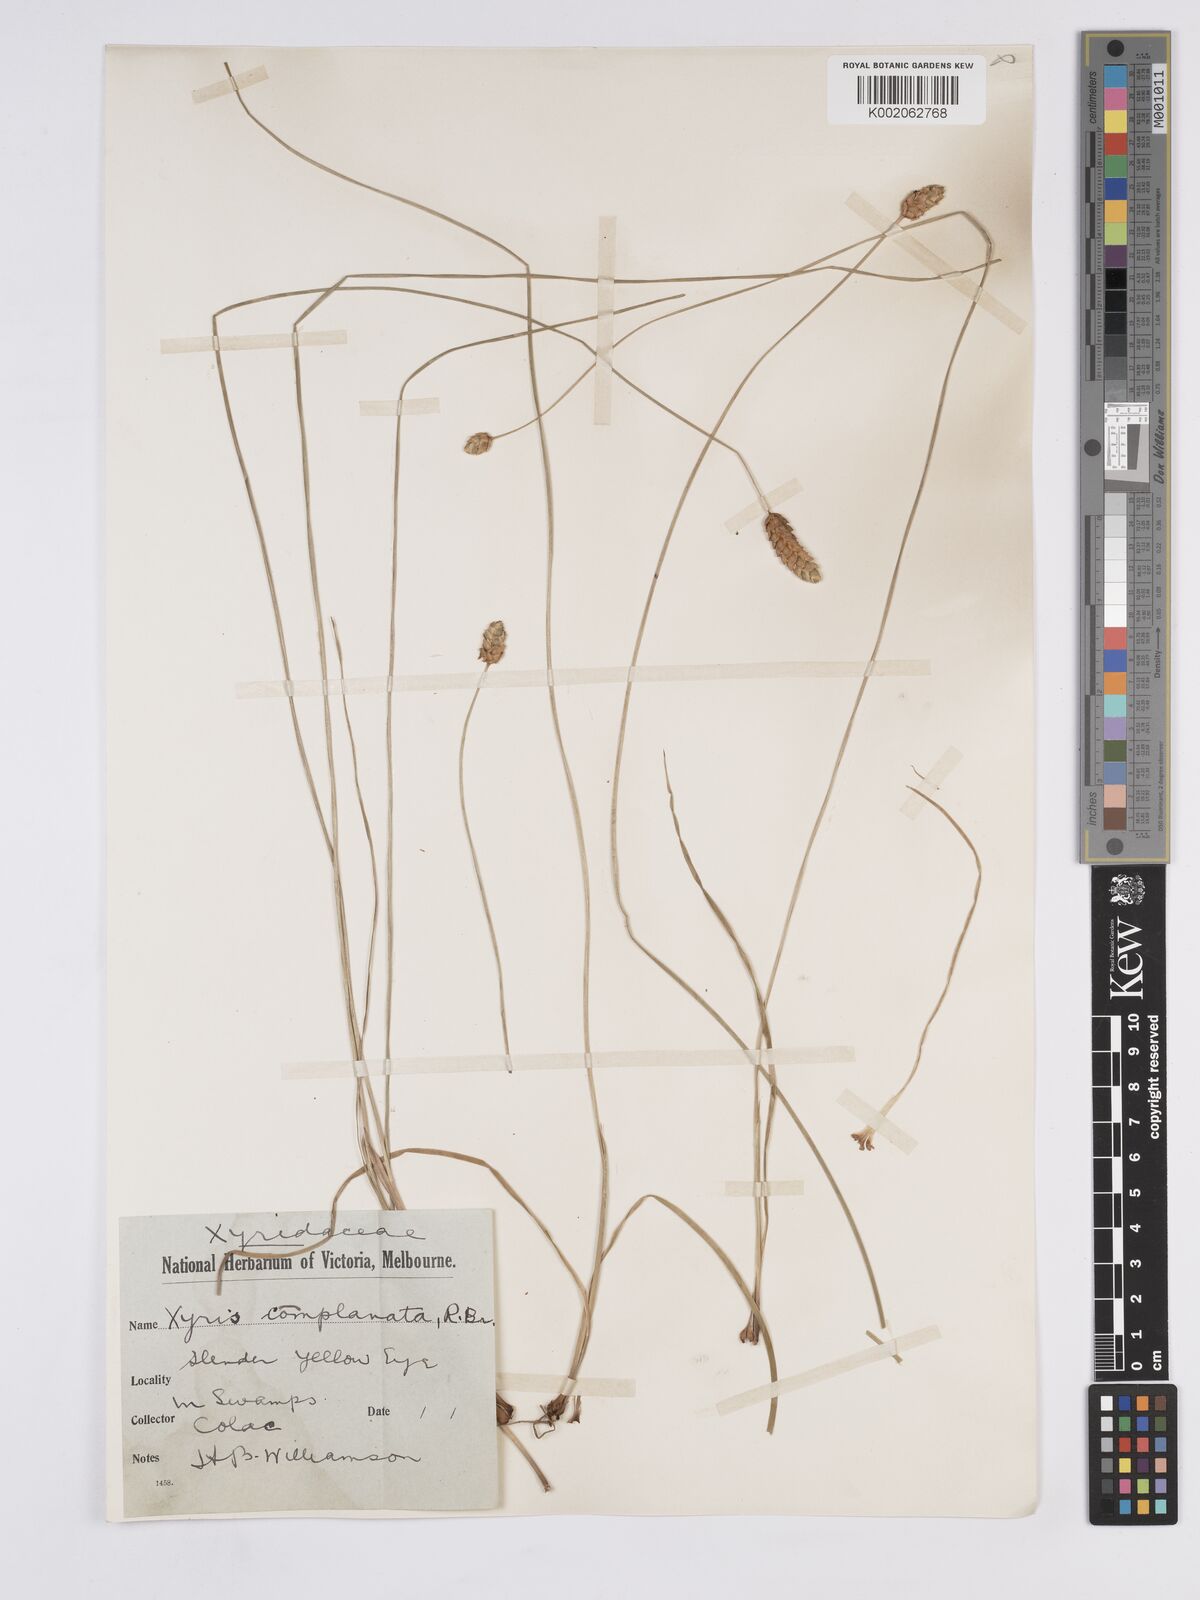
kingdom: Plantae
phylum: Tracheophyta
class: Liliopsida
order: Poales
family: Xyridaceae
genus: Xyris
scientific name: Xyris complanata
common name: Hawai'i yelloweyed grass
